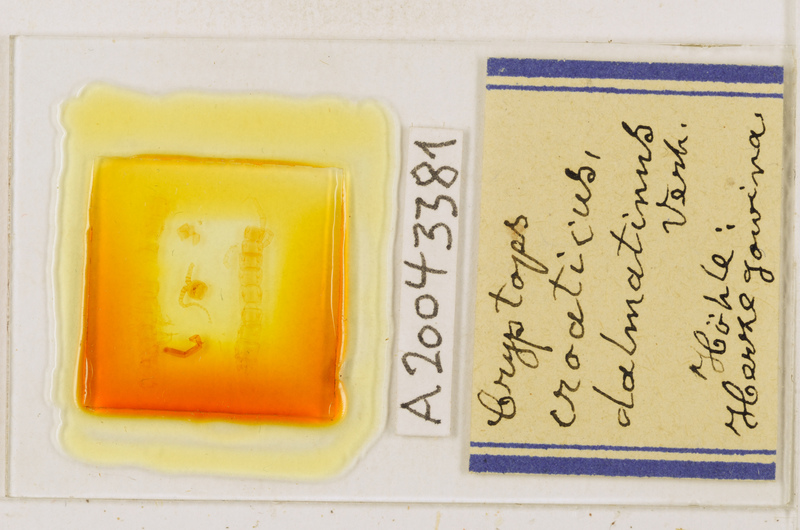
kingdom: Animalia
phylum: Arthropoda
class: Chilopoda
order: Scolopendromorpha
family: Cryptopidae
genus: Cryptops
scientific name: Cryptops croaticus
